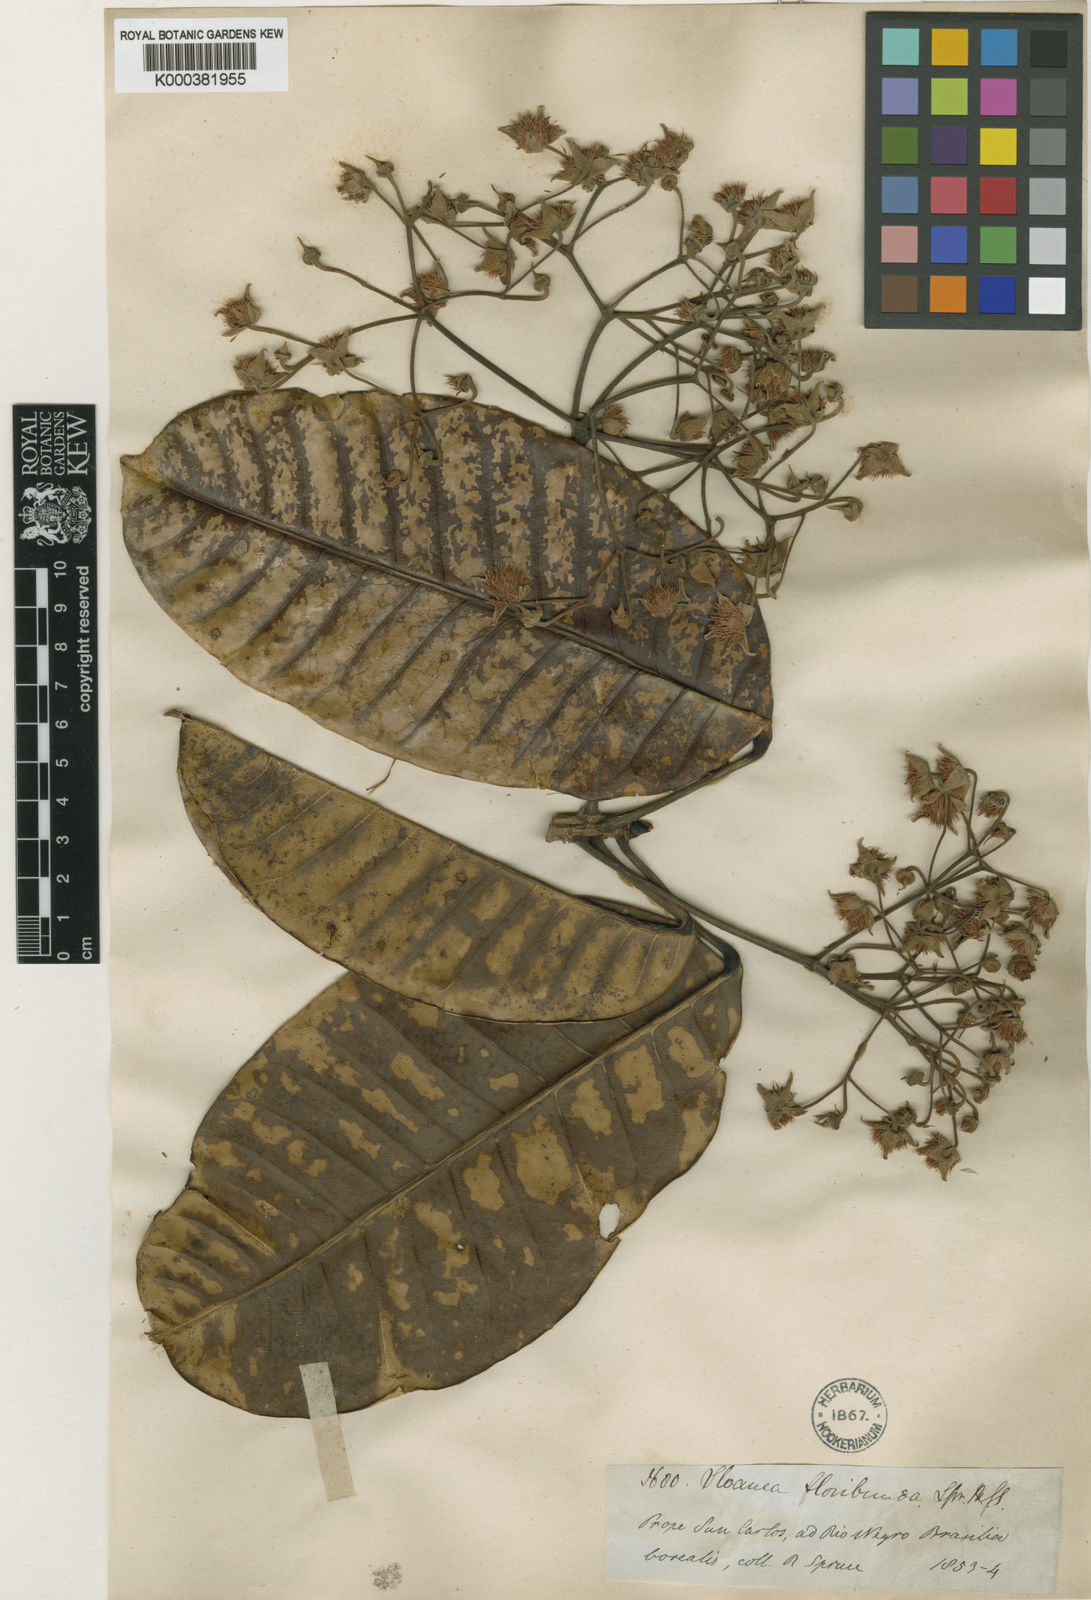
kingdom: Plantae
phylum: Tracheophyta
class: Magnoliopsida
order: Oxalidales
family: Elaeocarpaceae
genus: Sloanea
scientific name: Sloanea floribunda
